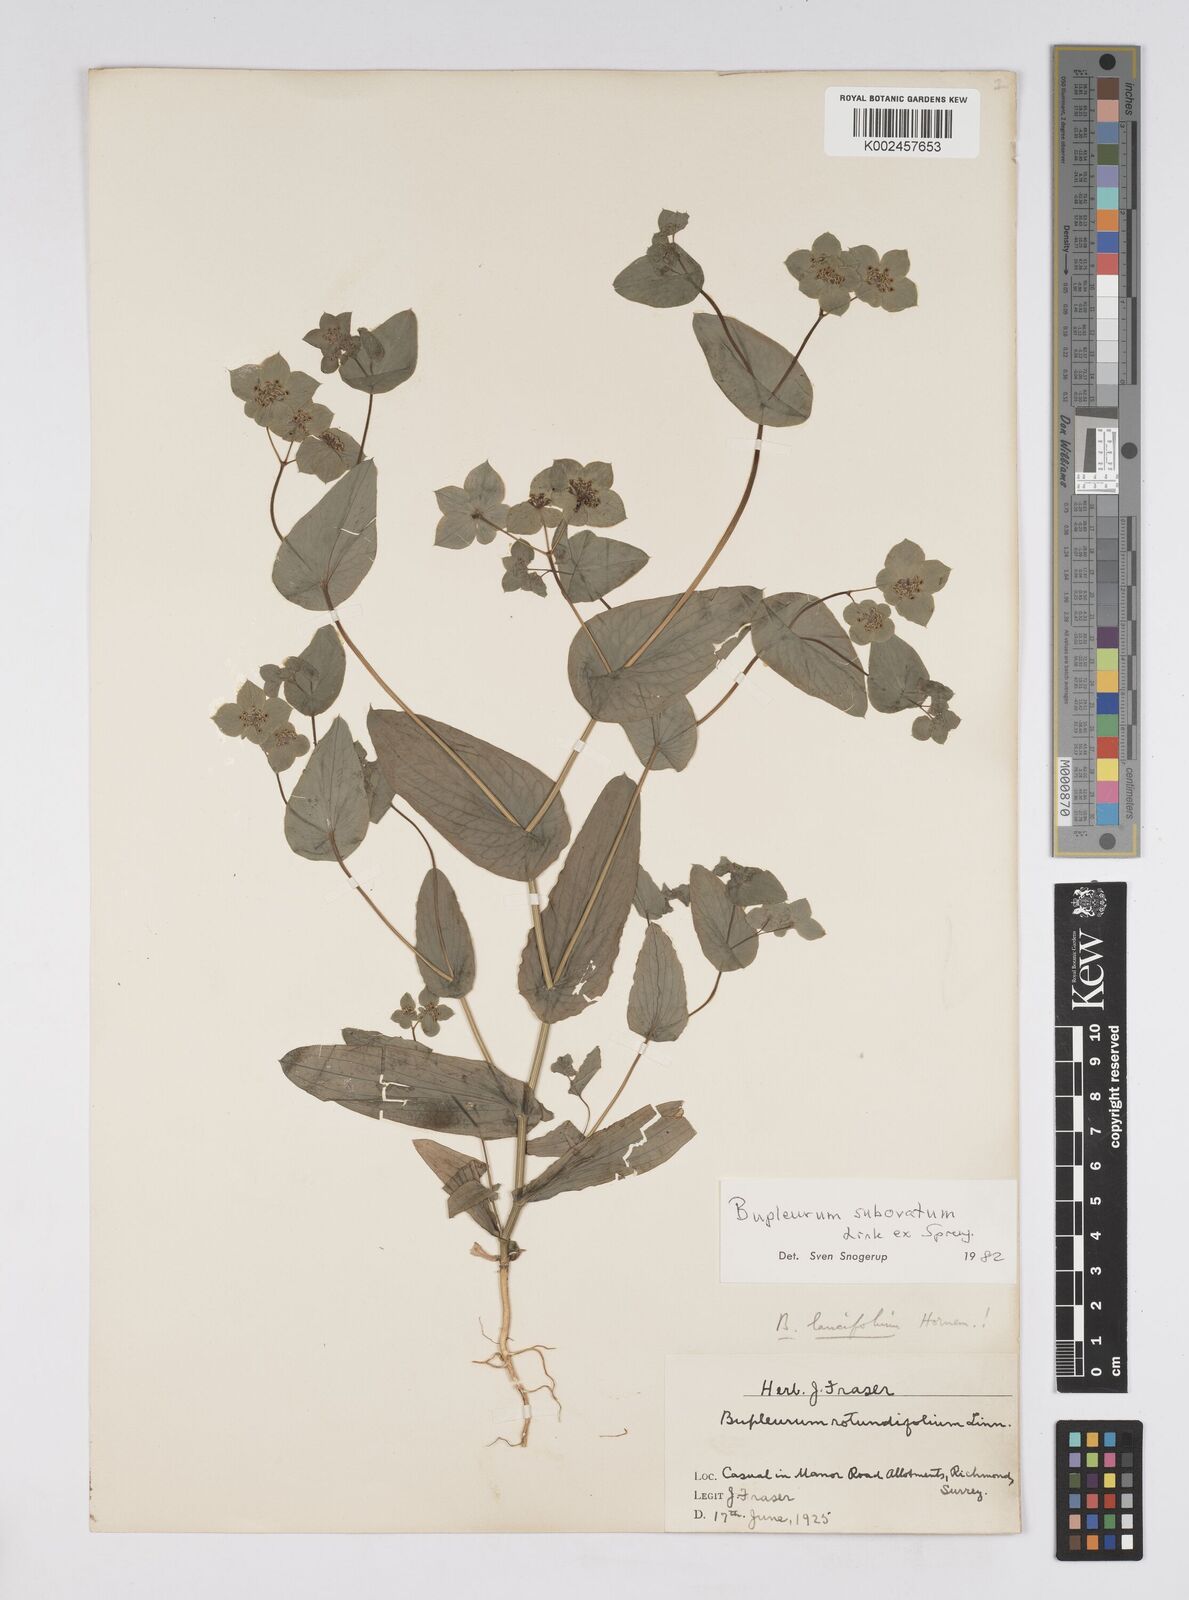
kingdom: Plantae
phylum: Tracheophyta
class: Magnoliopsida
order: Apiales
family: Apiaceae
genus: Bupleurum
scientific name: Bupleurum subovatum
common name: False thorow-wax
